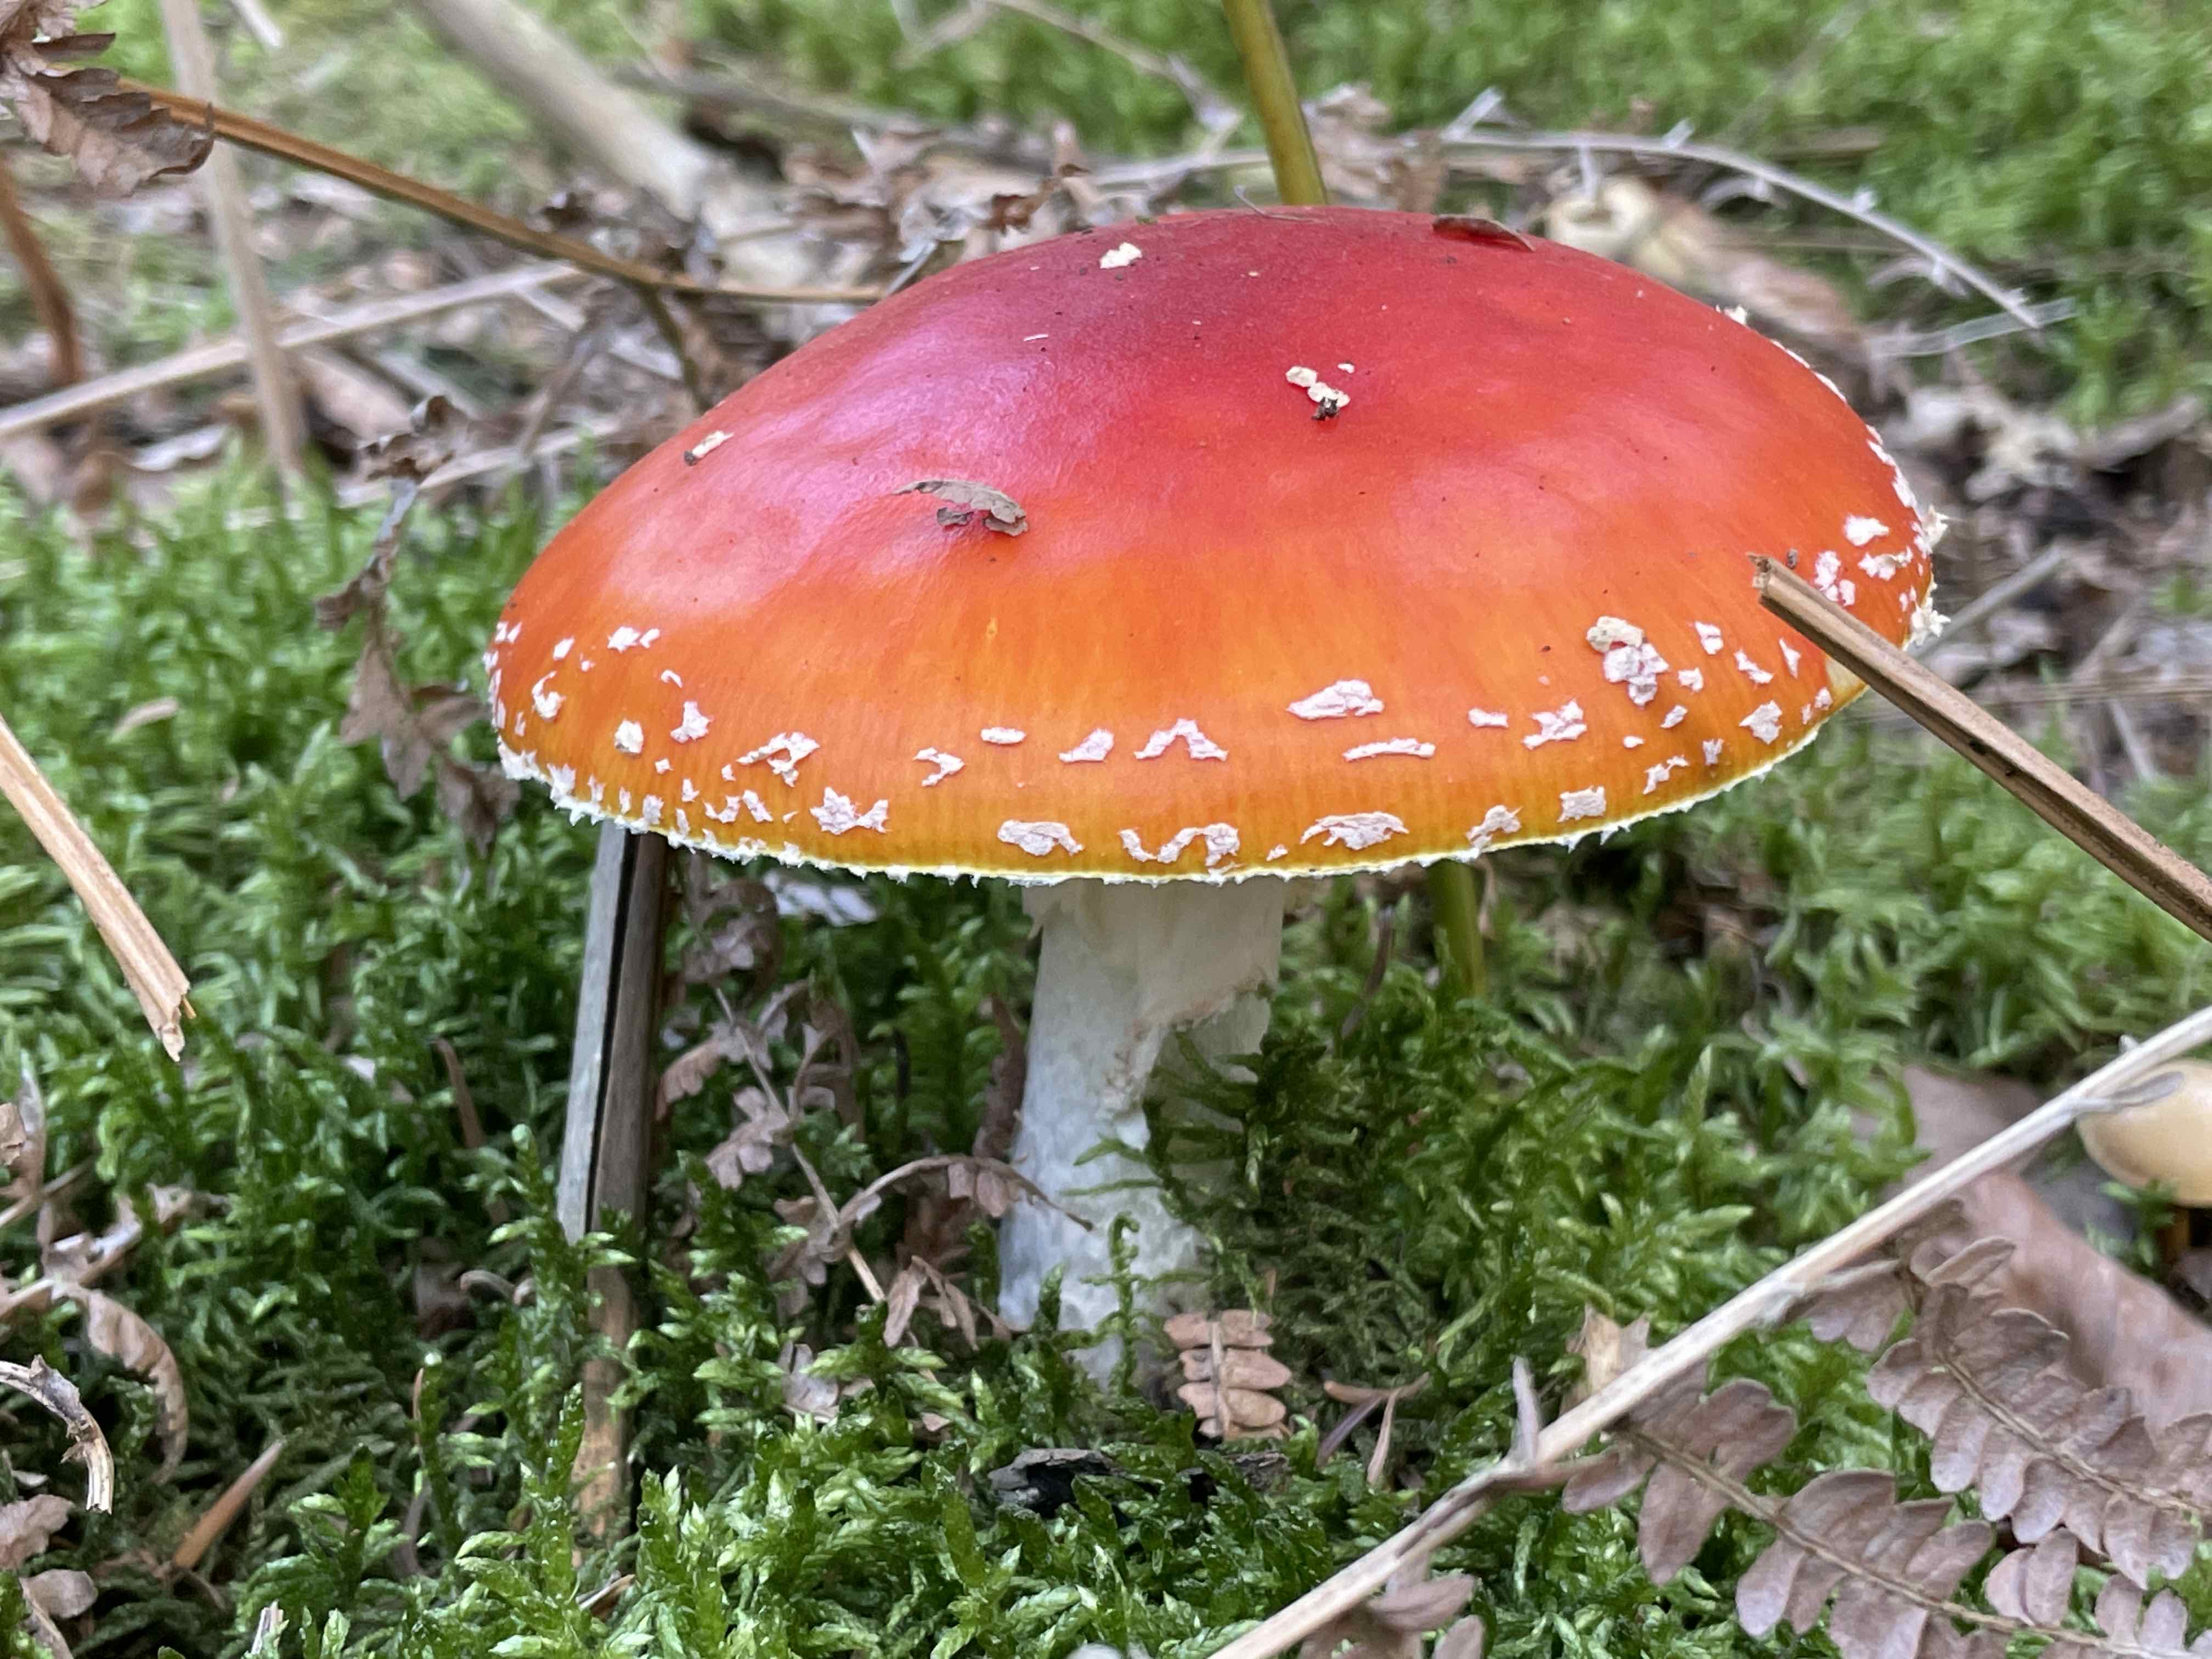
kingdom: Fungi
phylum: Basidiomycota
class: Agaricomycetes
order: Agaricales
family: Amanitaceae
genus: Amanita
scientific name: Amanita muscaria
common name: rød fluesvamp
